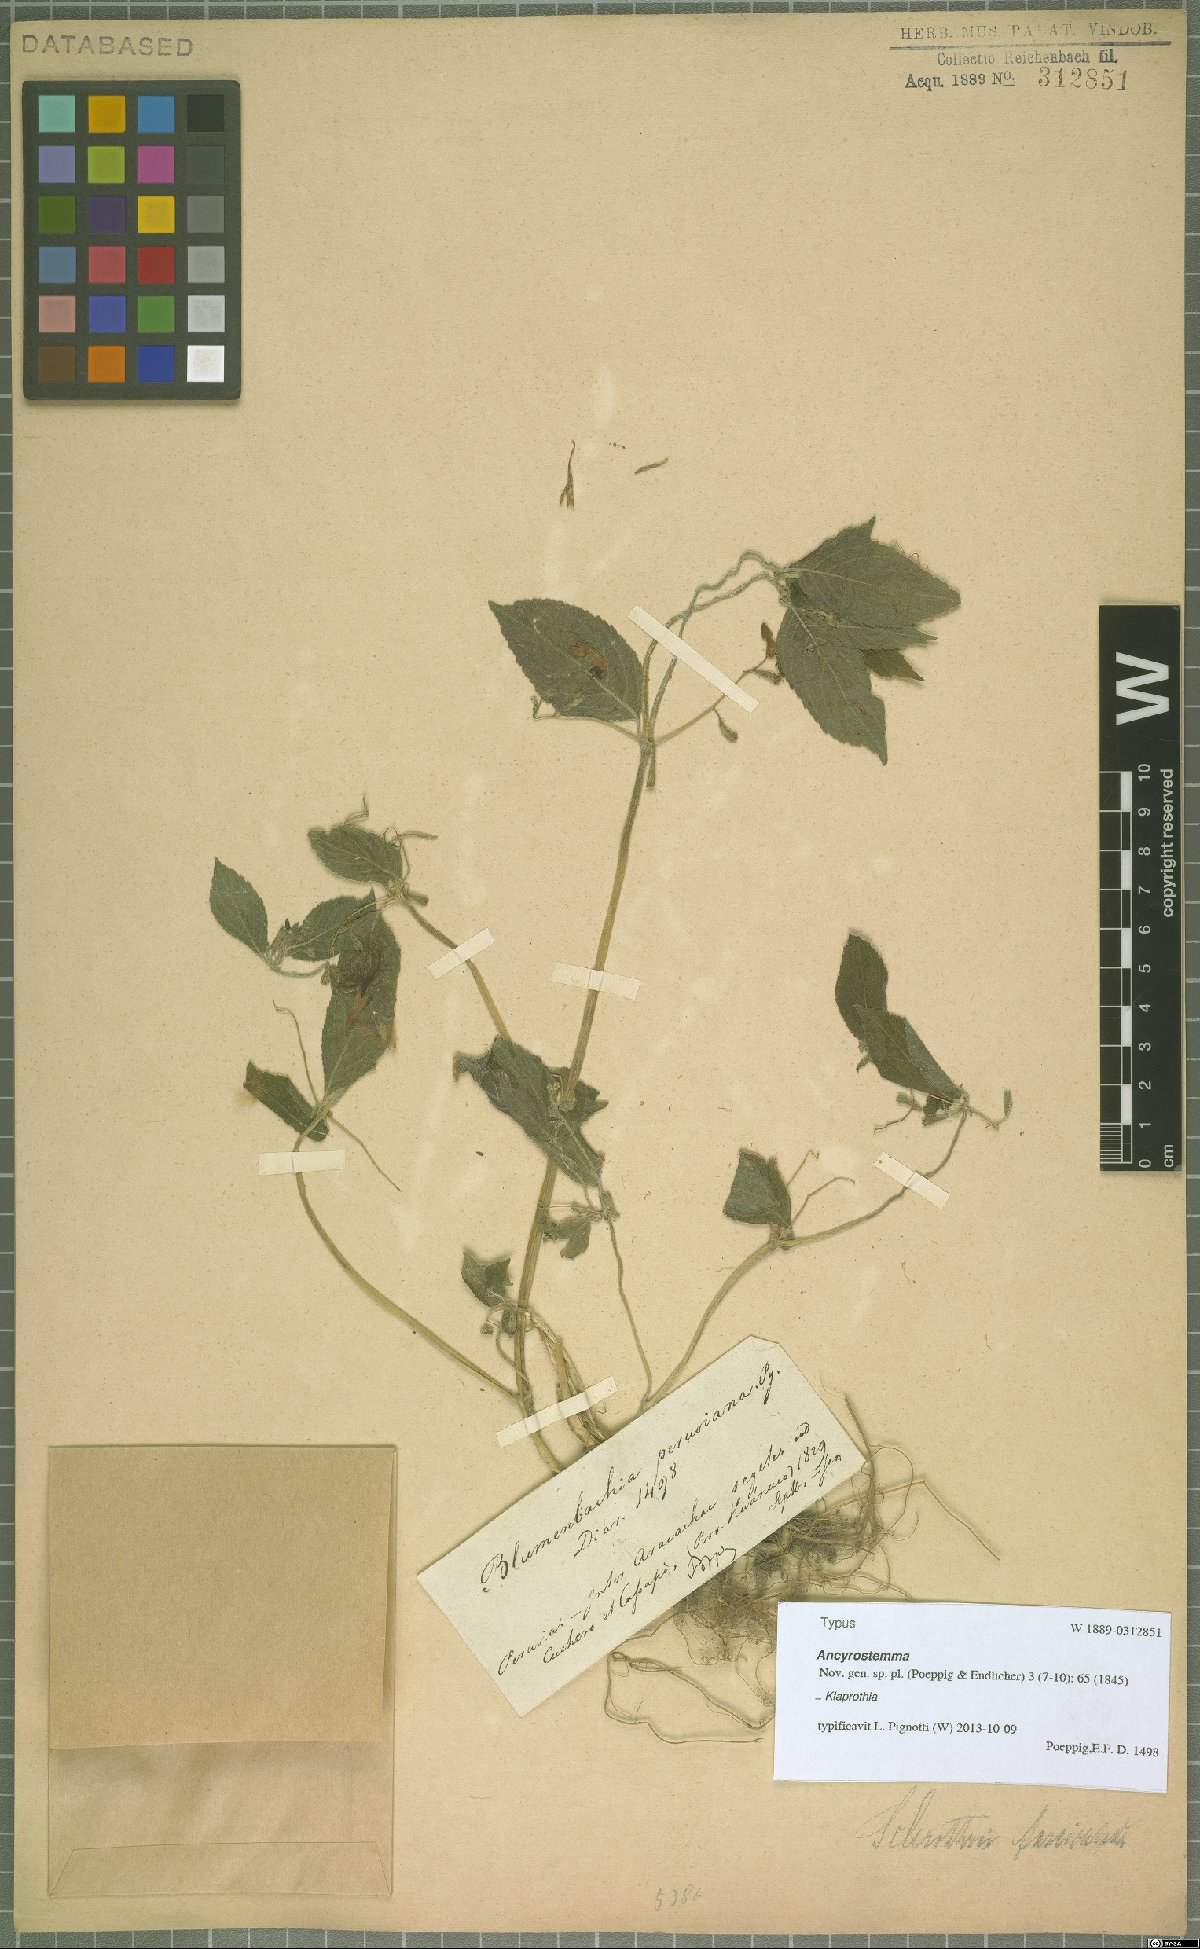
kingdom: Plantae
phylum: Tracheophyta
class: Magnoliopsida
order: Cornales
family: Loasaceae
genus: Klaprothia
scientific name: Klaprothia fasciculata
